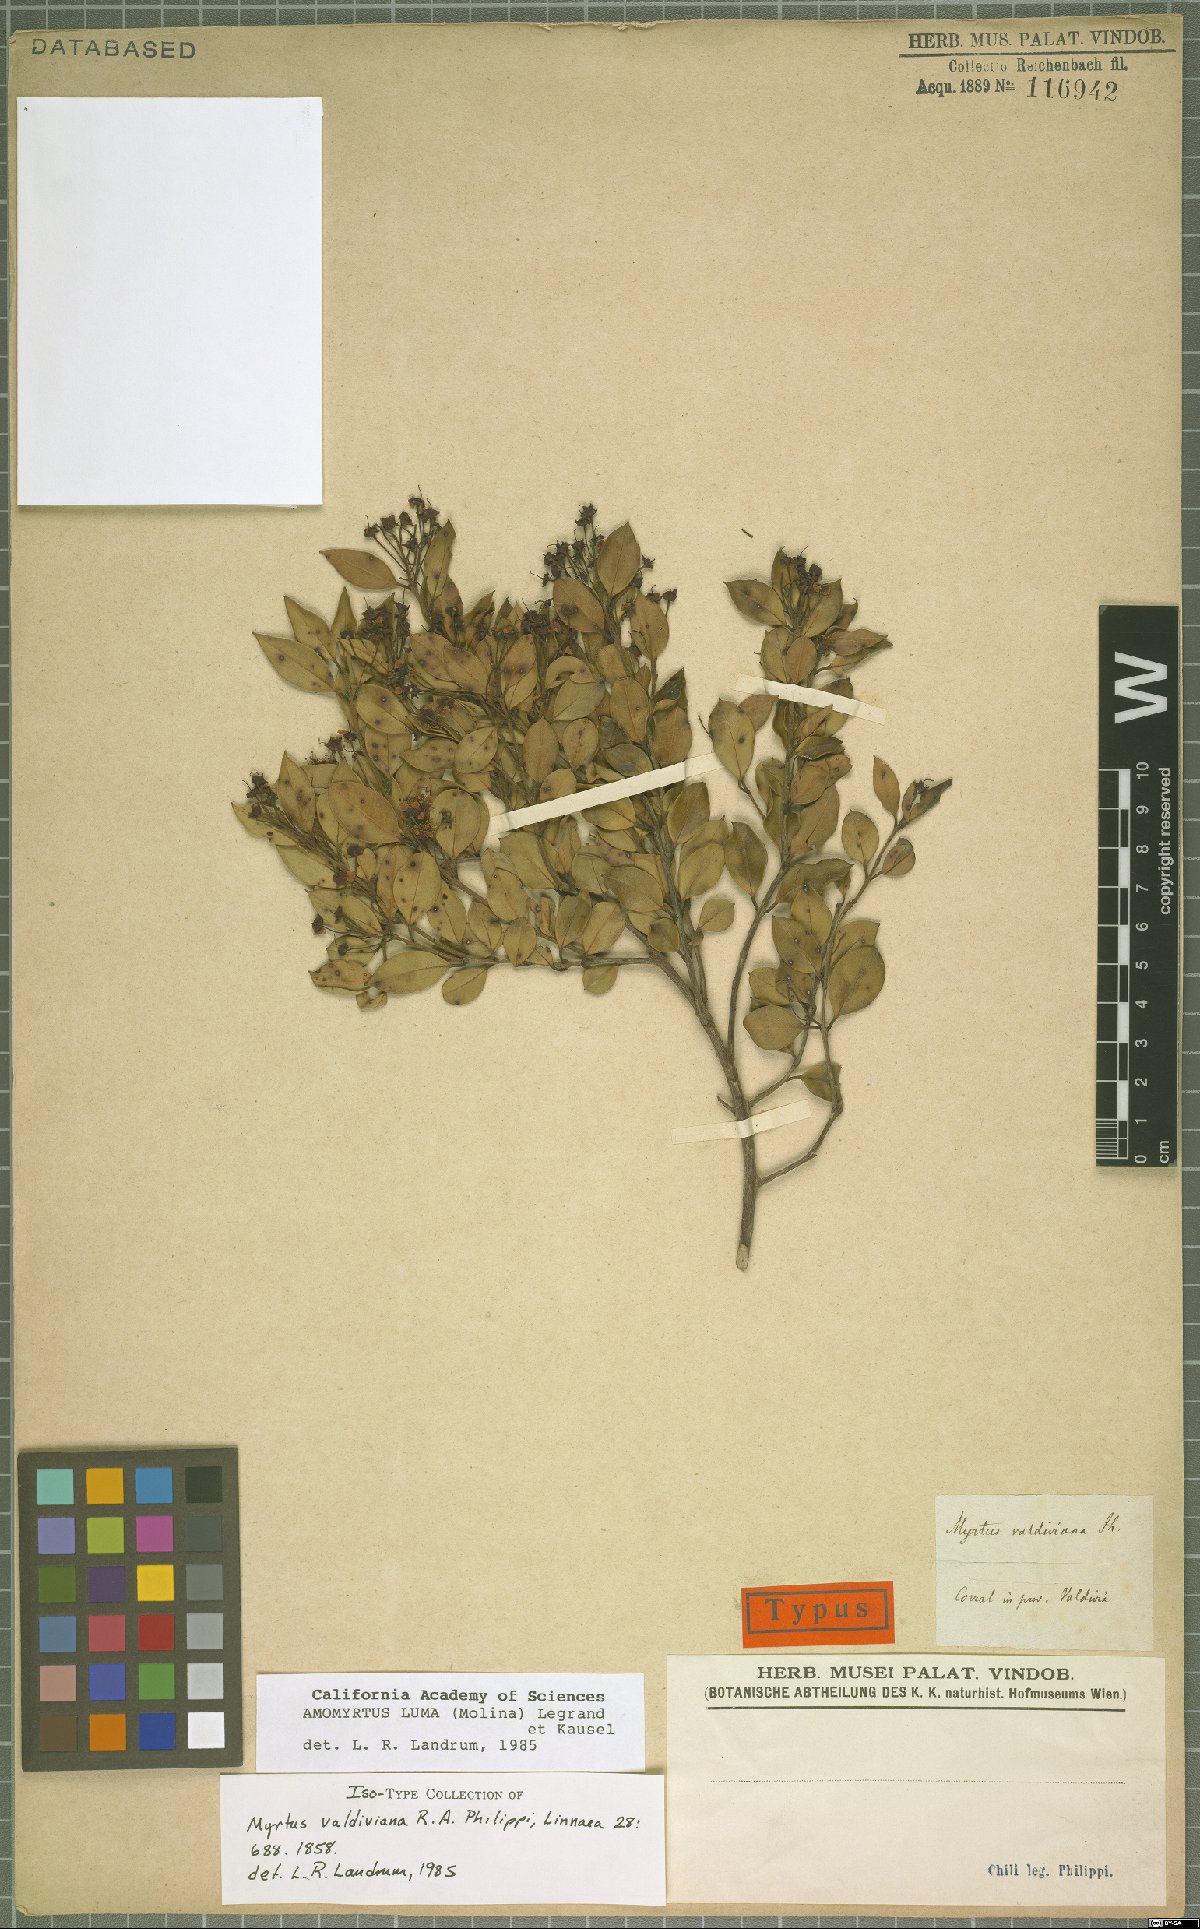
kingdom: Plantae
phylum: Tracheophyta
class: Magnoliopsida
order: Myrtales
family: Myrtaceae
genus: Amomyrtus
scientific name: Amomyrtus luma
